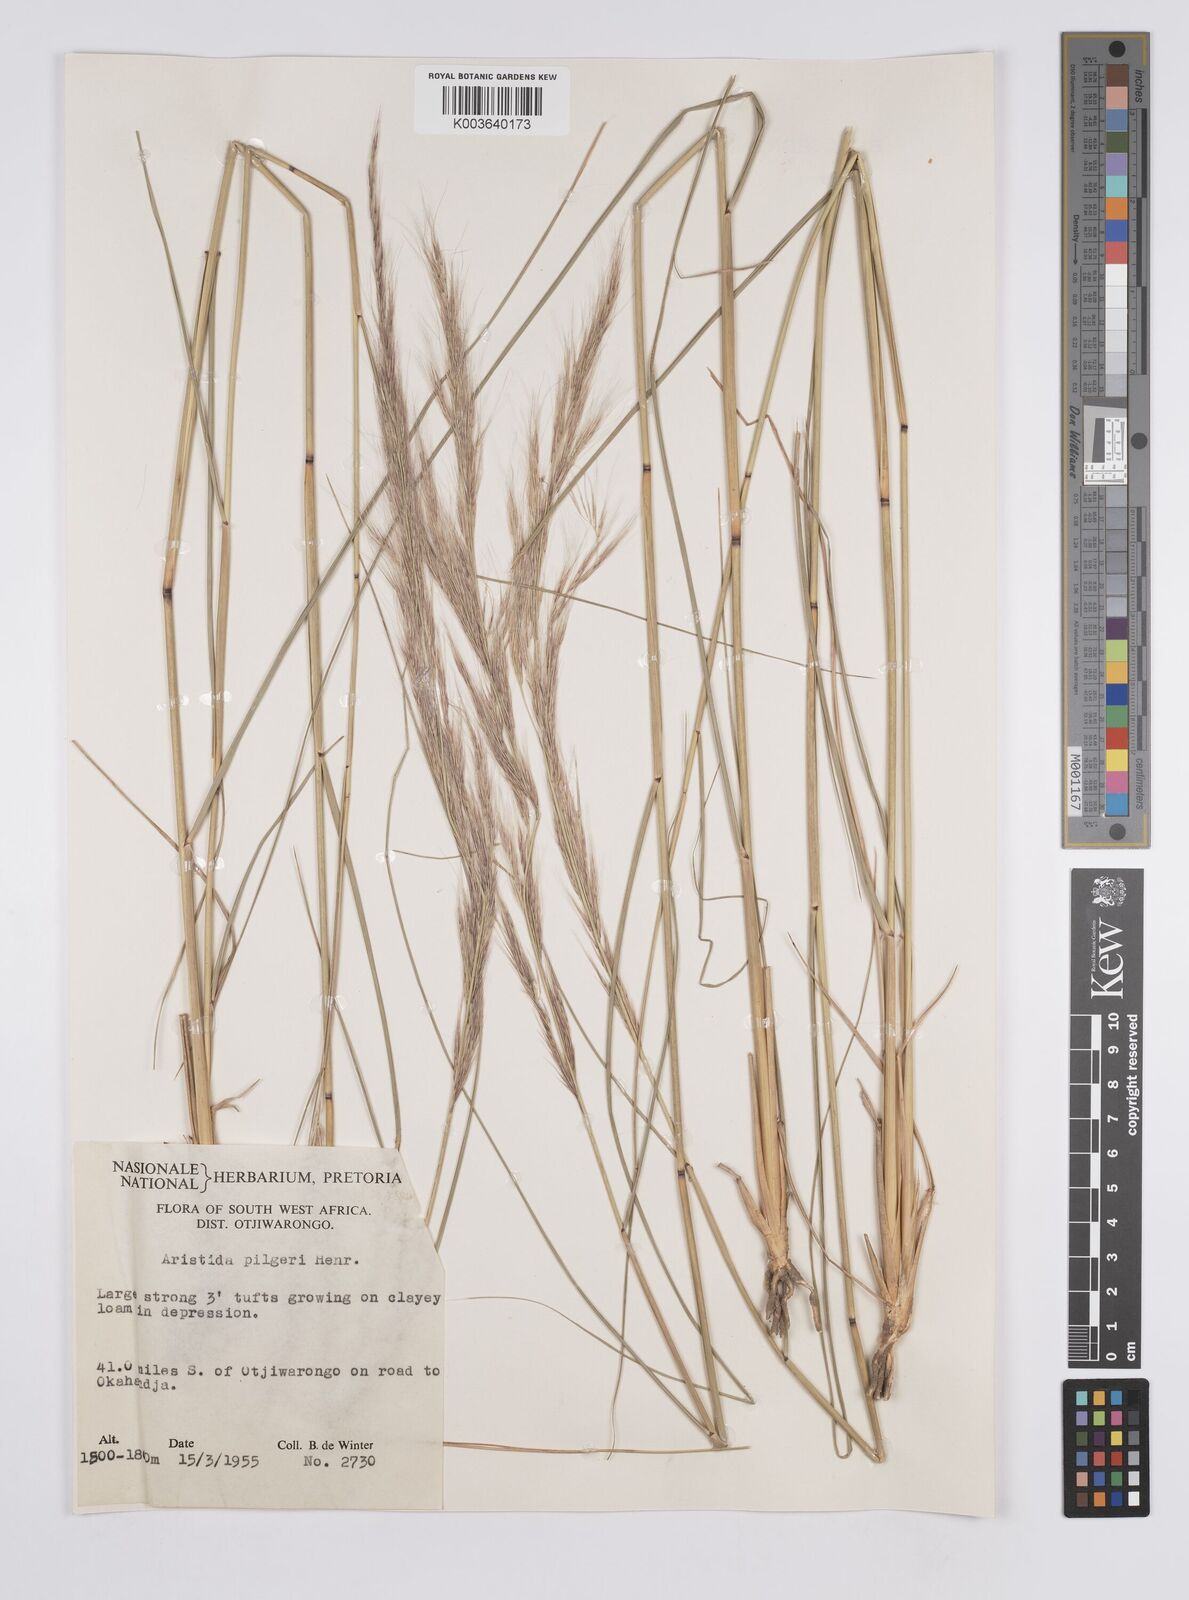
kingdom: Plantae
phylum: Tracheophyta
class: Liliopsida
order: Poales
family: Poaceae
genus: Aristida
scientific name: Aristida pilgeri
